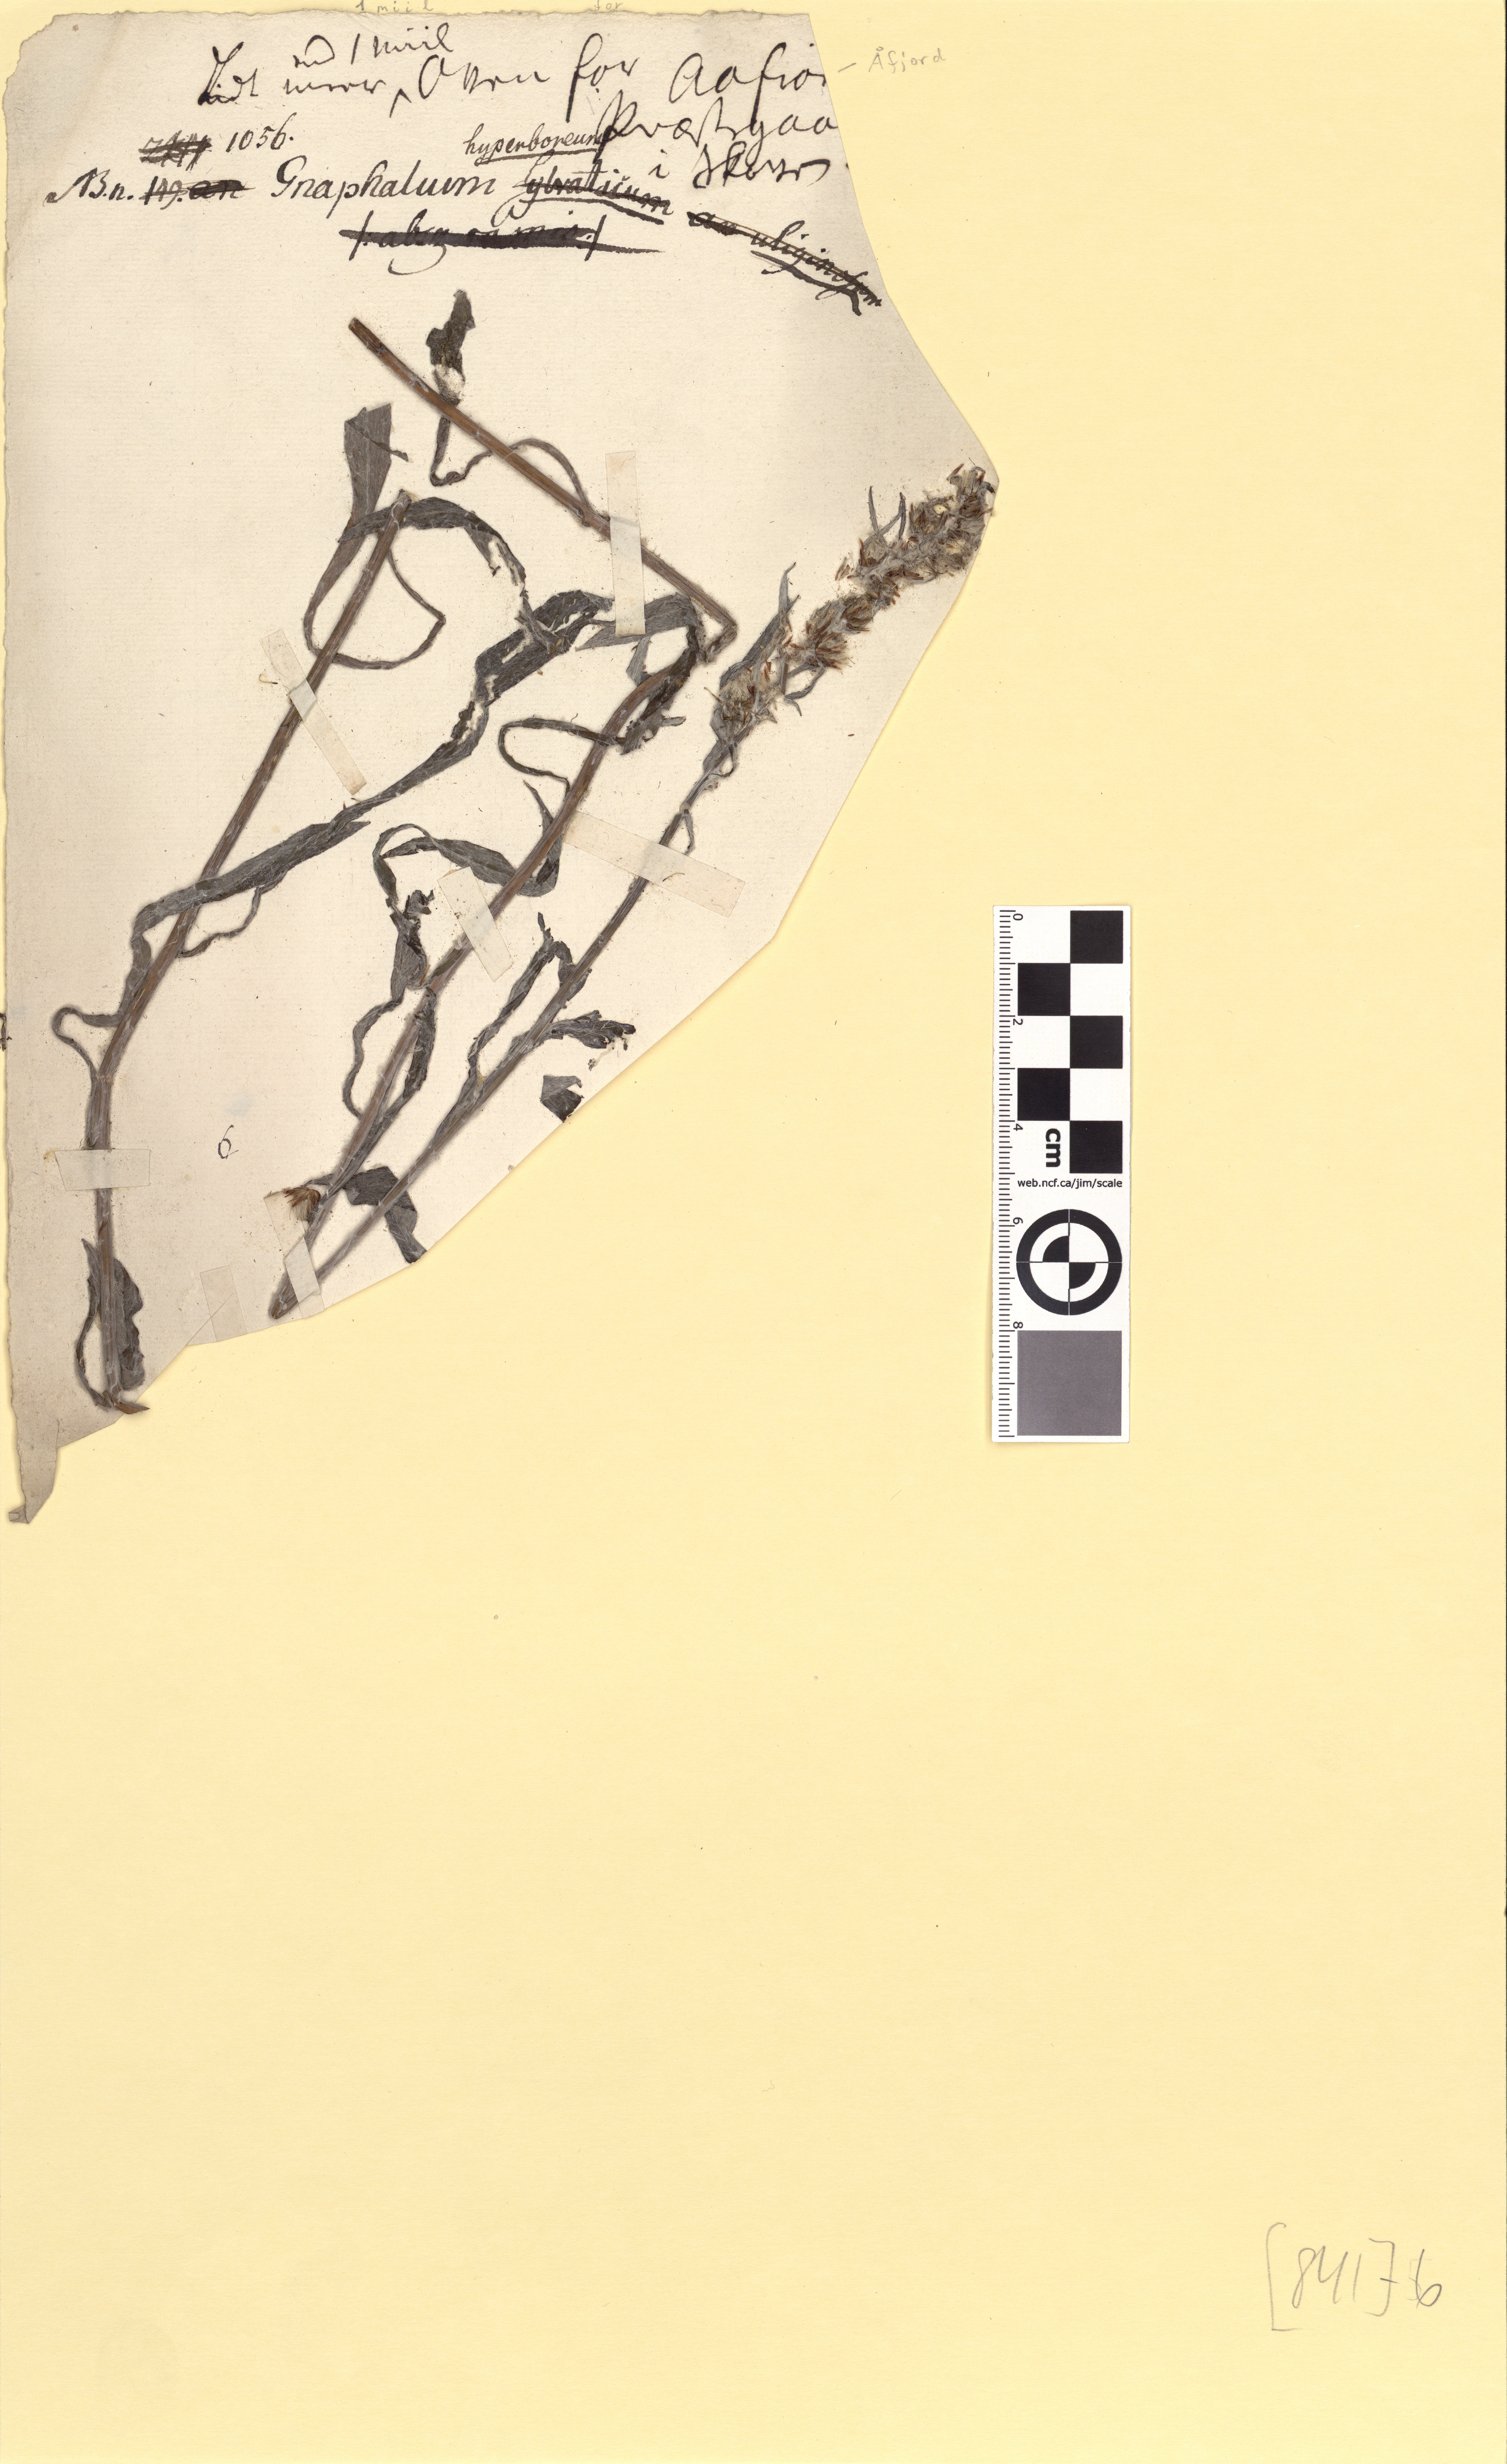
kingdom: Plantae
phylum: Tracheophyta
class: Magnoliopsida
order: Asterales
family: Asteraceae
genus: Omalotheca
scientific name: Omalotheca norvegica
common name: Norwegian arctic-cudweed
